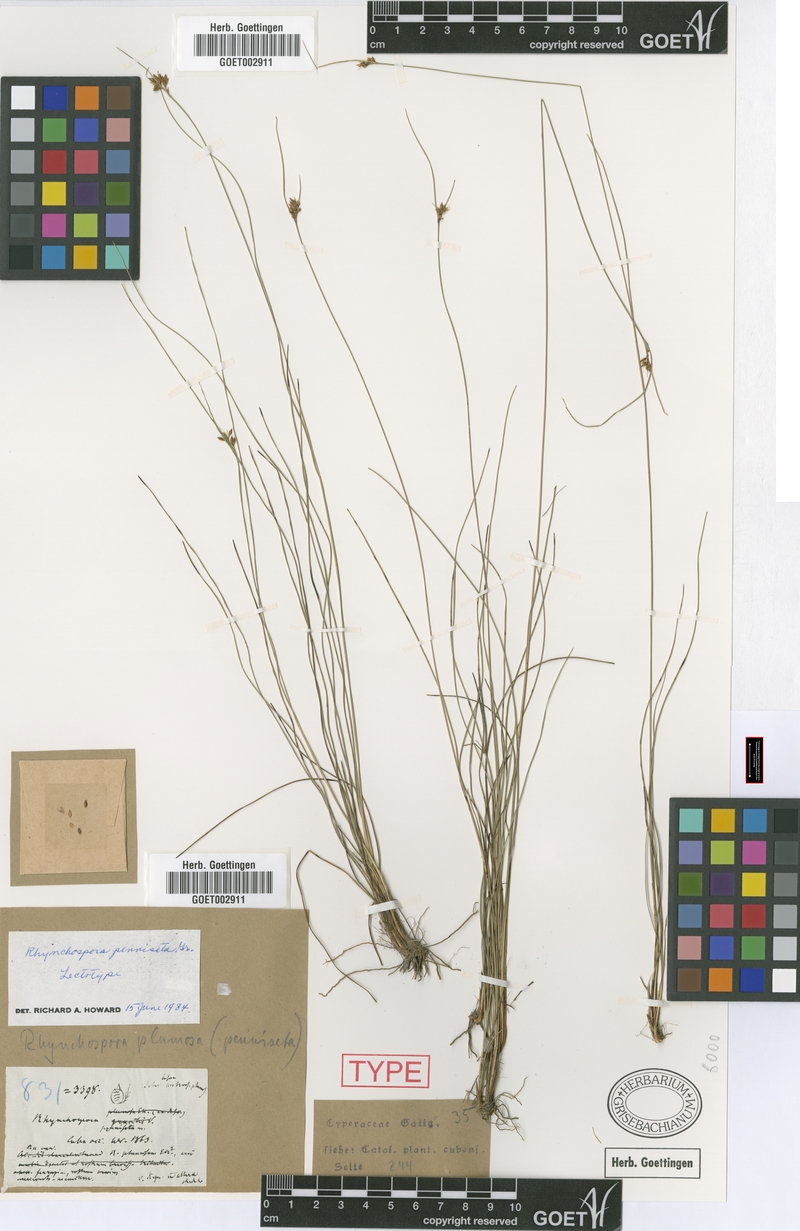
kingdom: Plantae
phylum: Tracheophyta
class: Liliopsida
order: Poales
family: Cyperaceae
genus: Rhynchospora
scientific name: Rhynchospora plumosa
